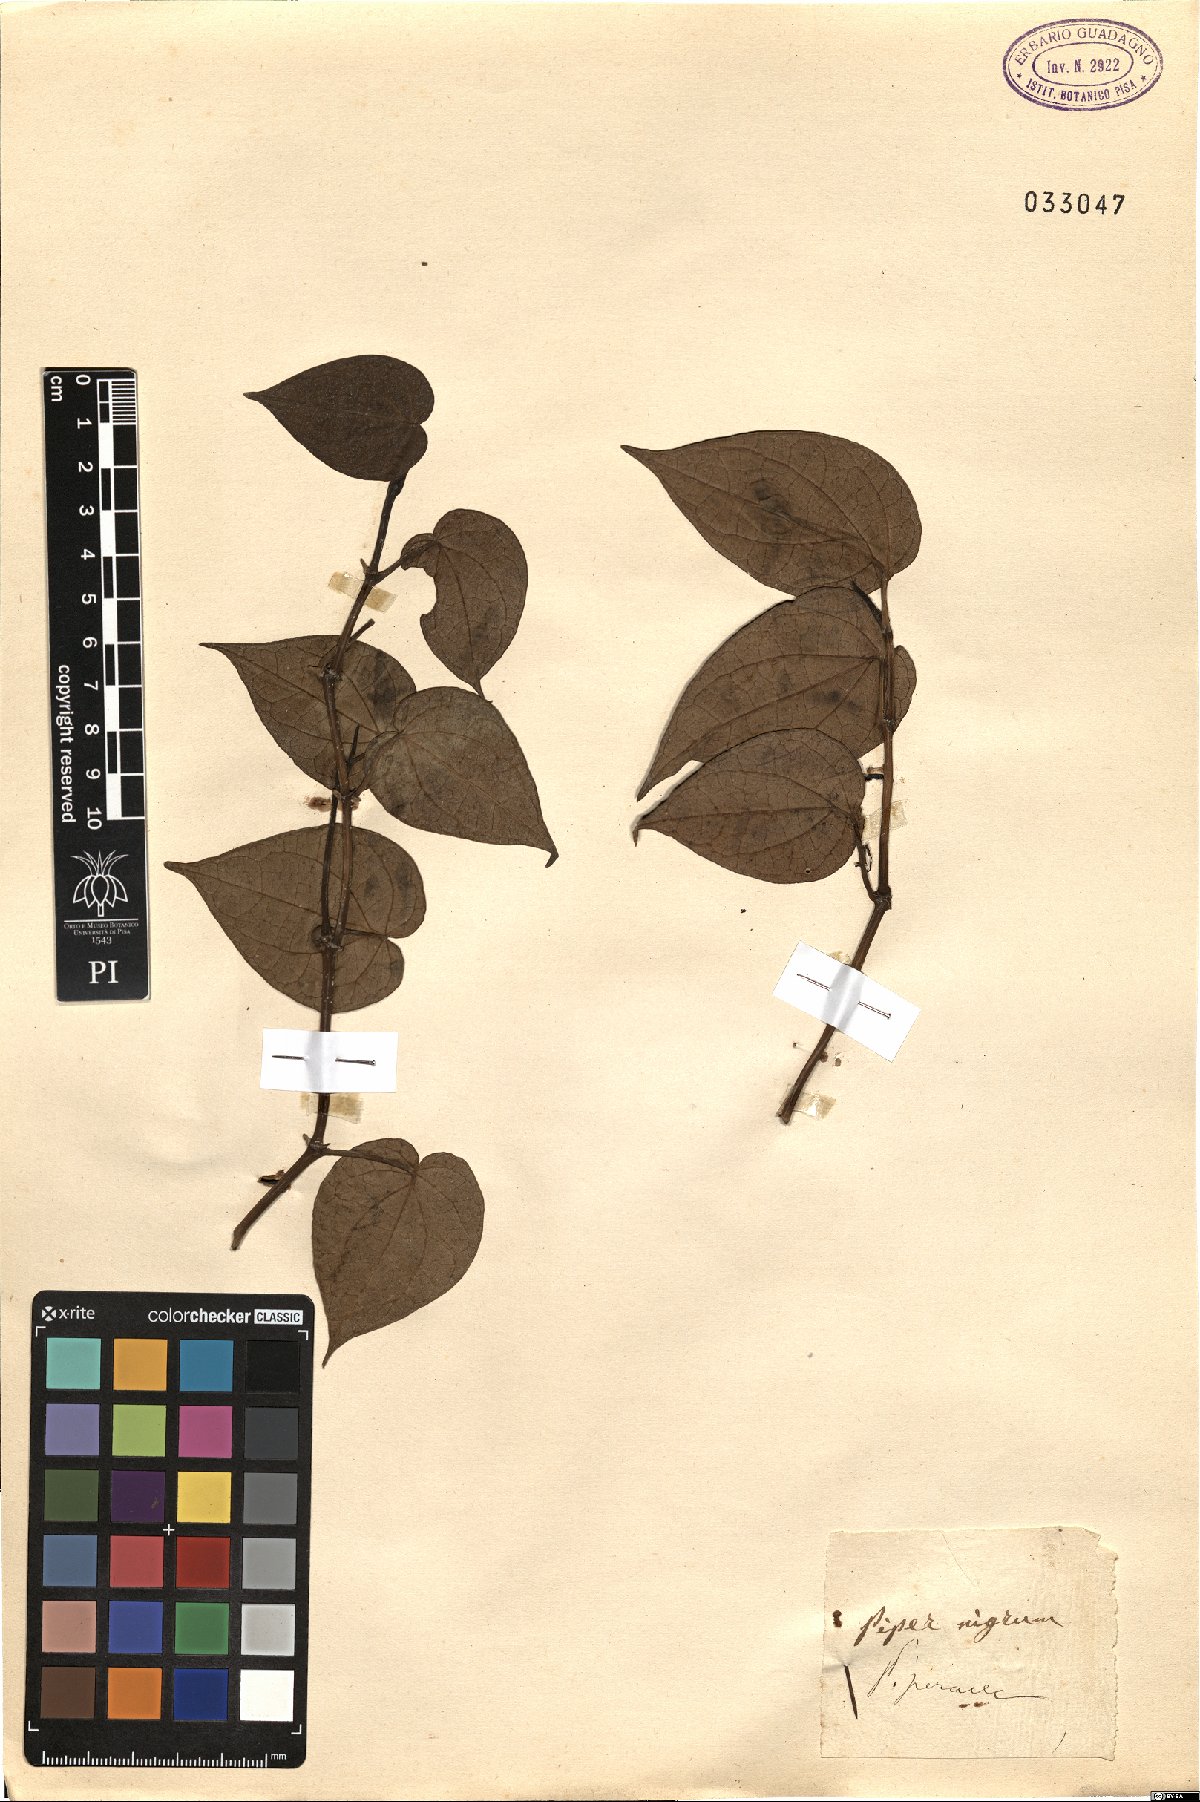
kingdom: Plantae
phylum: Tracheophyta
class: Magnoliopsida
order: Piperales
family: Piperaceae
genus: Piper
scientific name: Piper nigrum
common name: Black pepper
